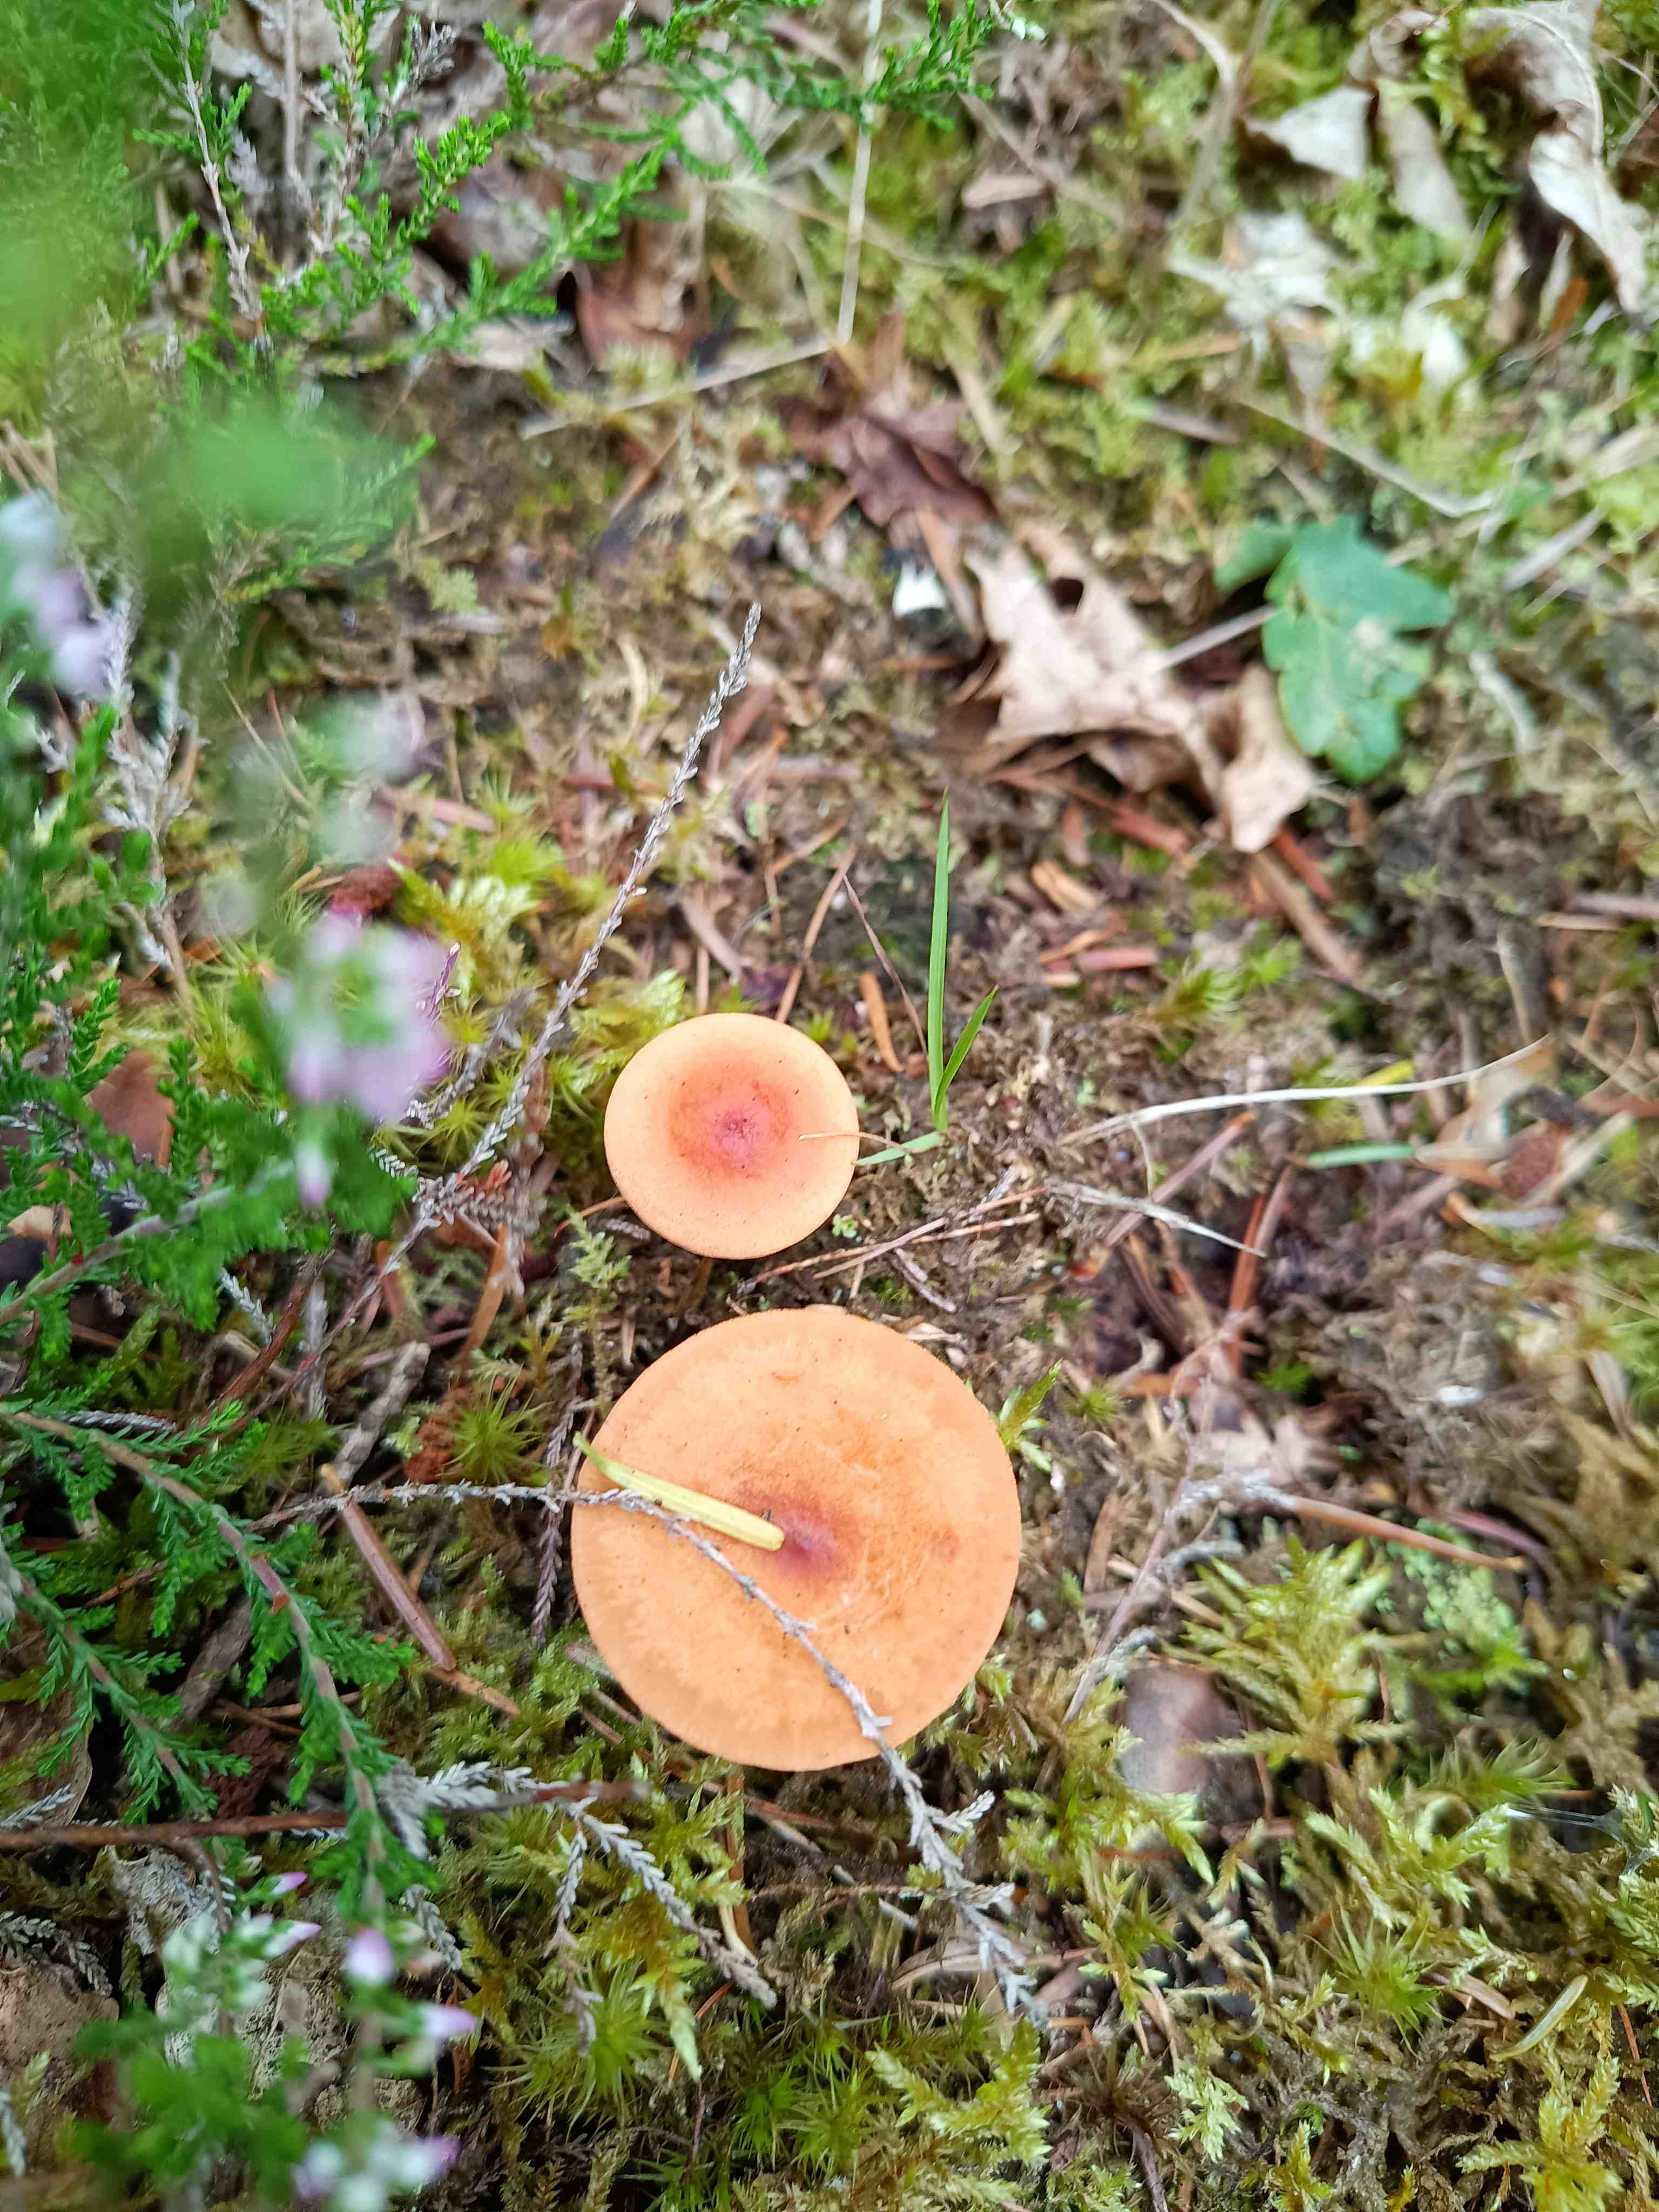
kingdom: Fungi
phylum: Basidiomycota
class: Agaricomycetes
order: Boletales
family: Hygrophoropsidaceae
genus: Hygrophoropsis
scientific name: Hygrophoropsis aurantiaca
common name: almindelig orangekantarel
